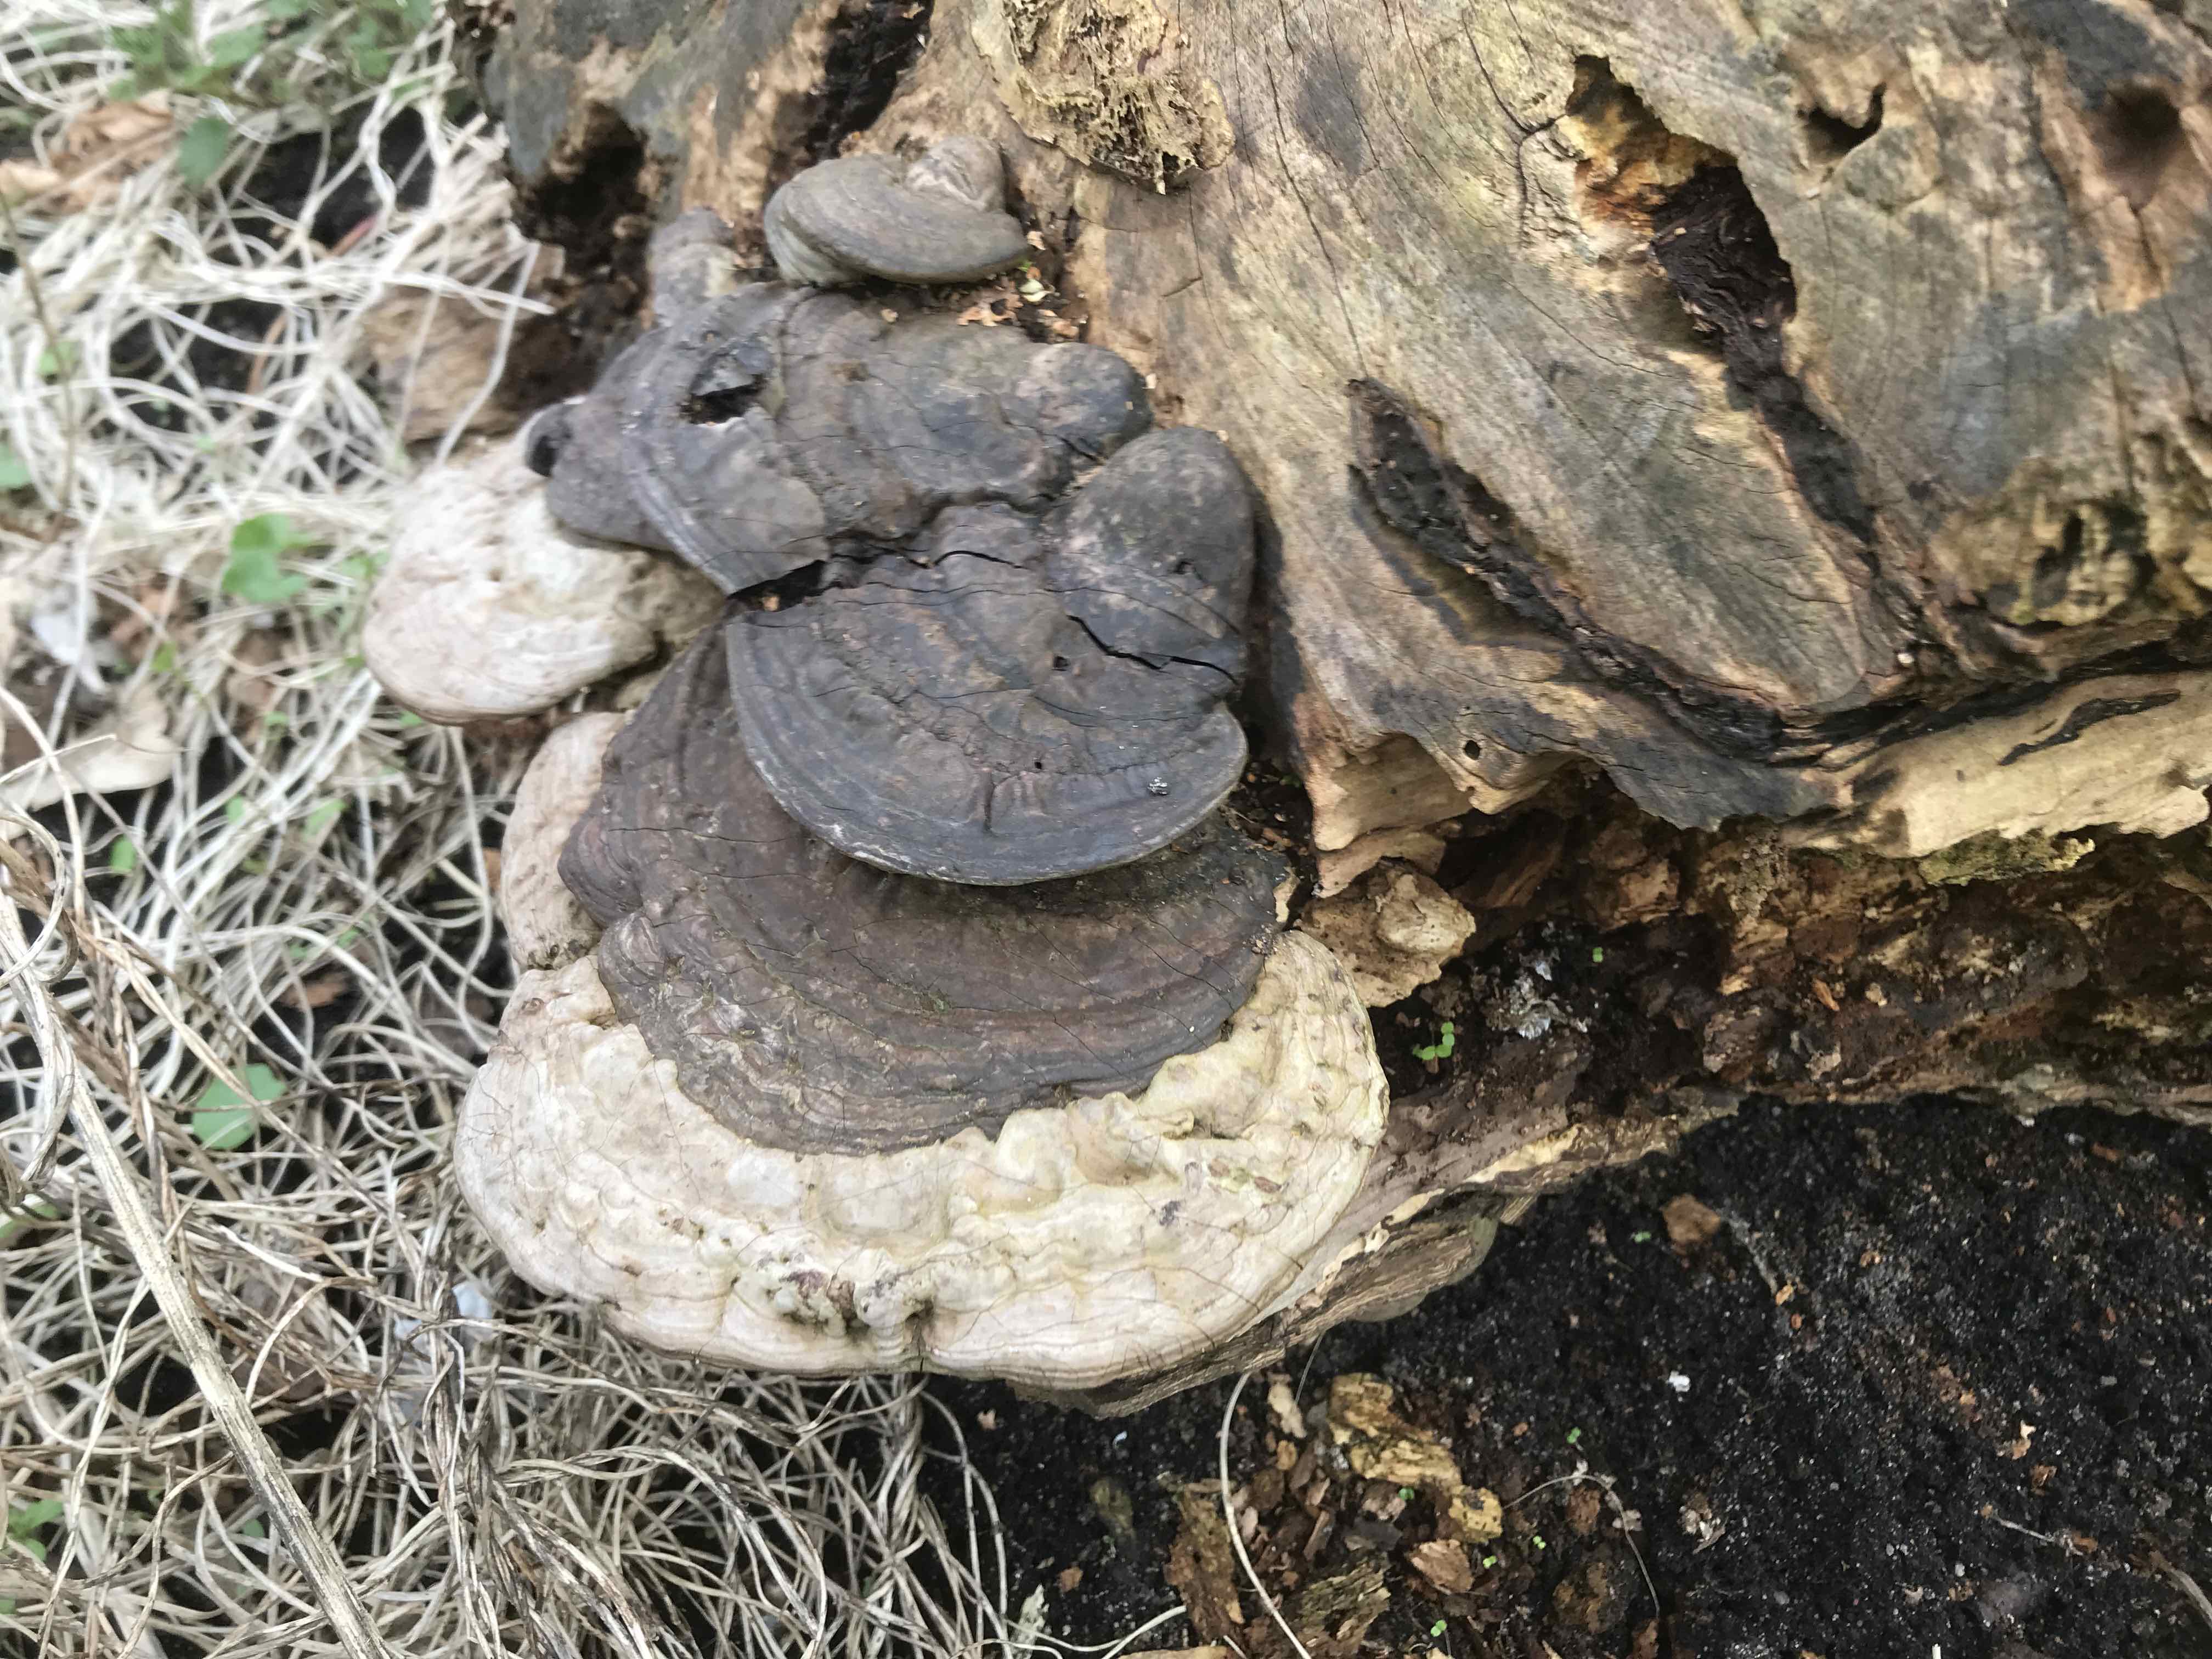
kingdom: Fungi
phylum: Basidiomycota
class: Agaricomycetes
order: Polyporales
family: Polyporaceae
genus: Ganoderma
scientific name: Ganoderma applanatum
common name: flad lakporesvamp
